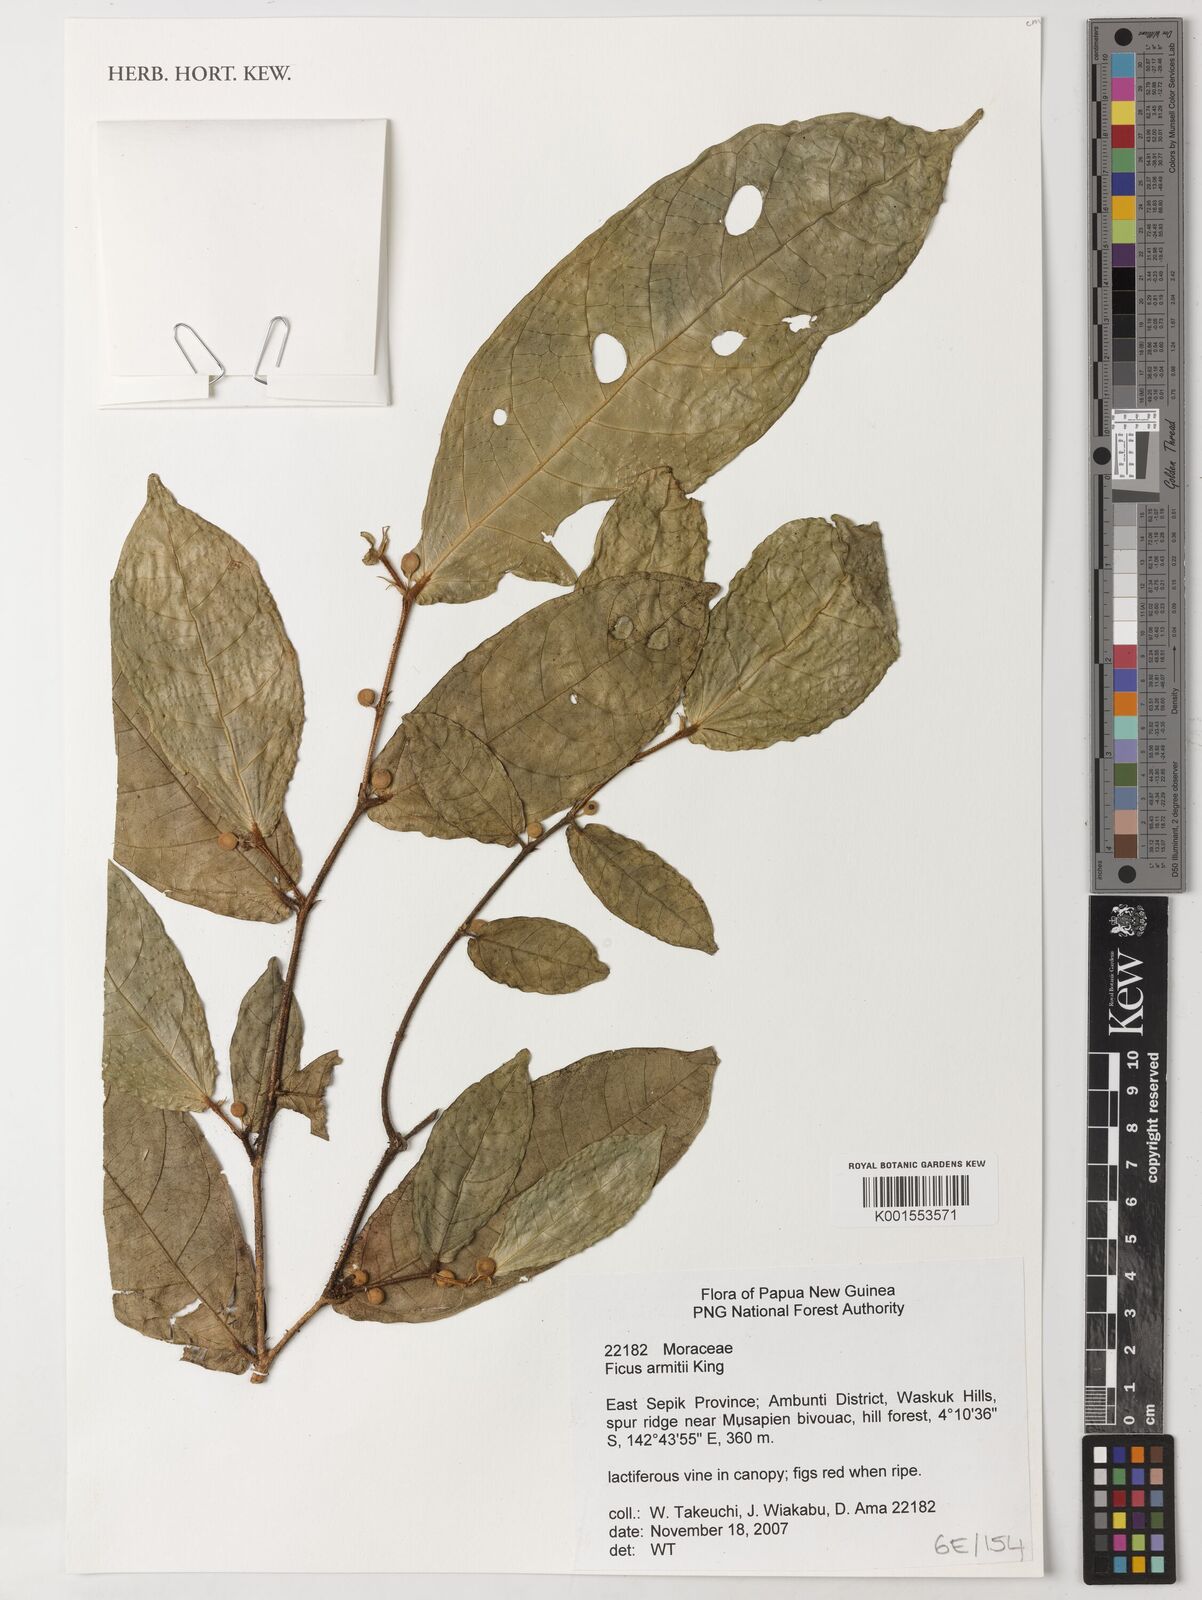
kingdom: Plantae
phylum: Tracheophyta
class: Magnoliopsida
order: Rosales
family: Moraceae
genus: Ficus
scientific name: Ficus armitii
